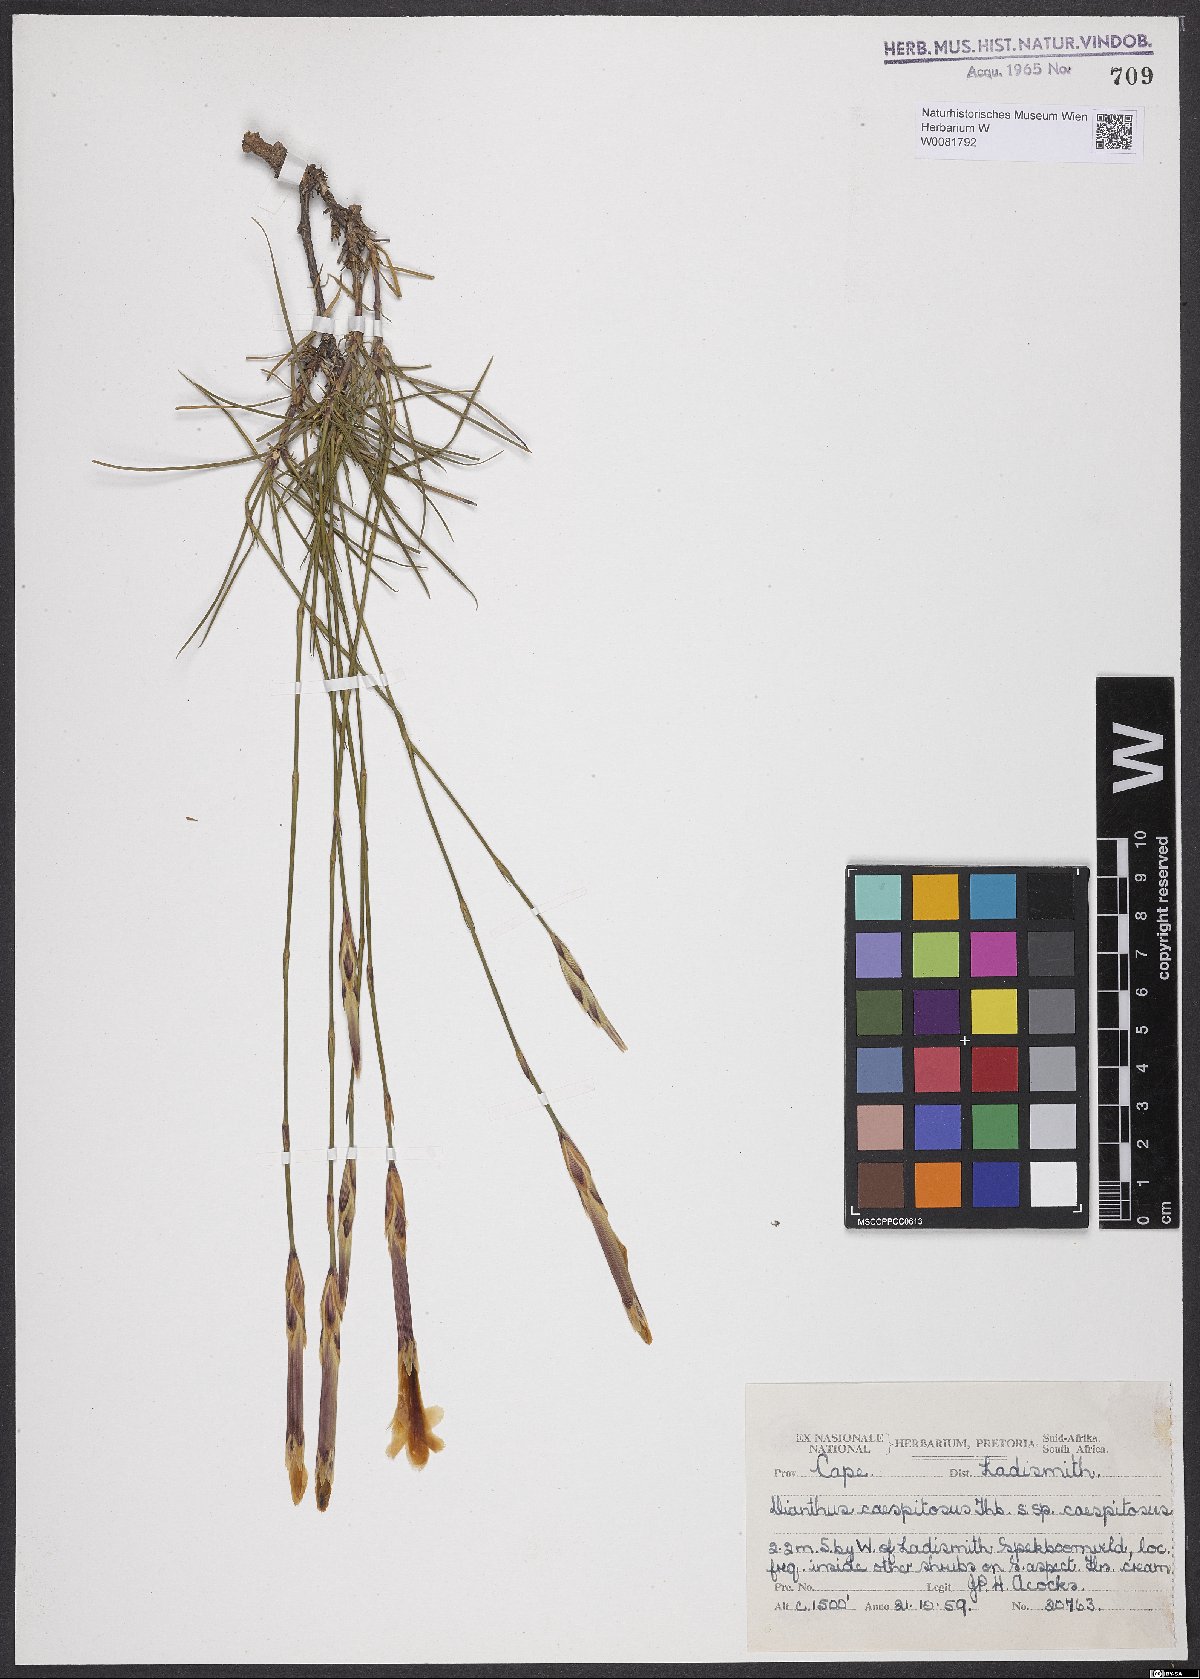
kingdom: Plantae
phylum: Tracheophyta
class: Magnoliopsida
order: Caryophyllales
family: Caryophyllaceae
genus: Dianthus
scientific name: Dianthus caespitosus
